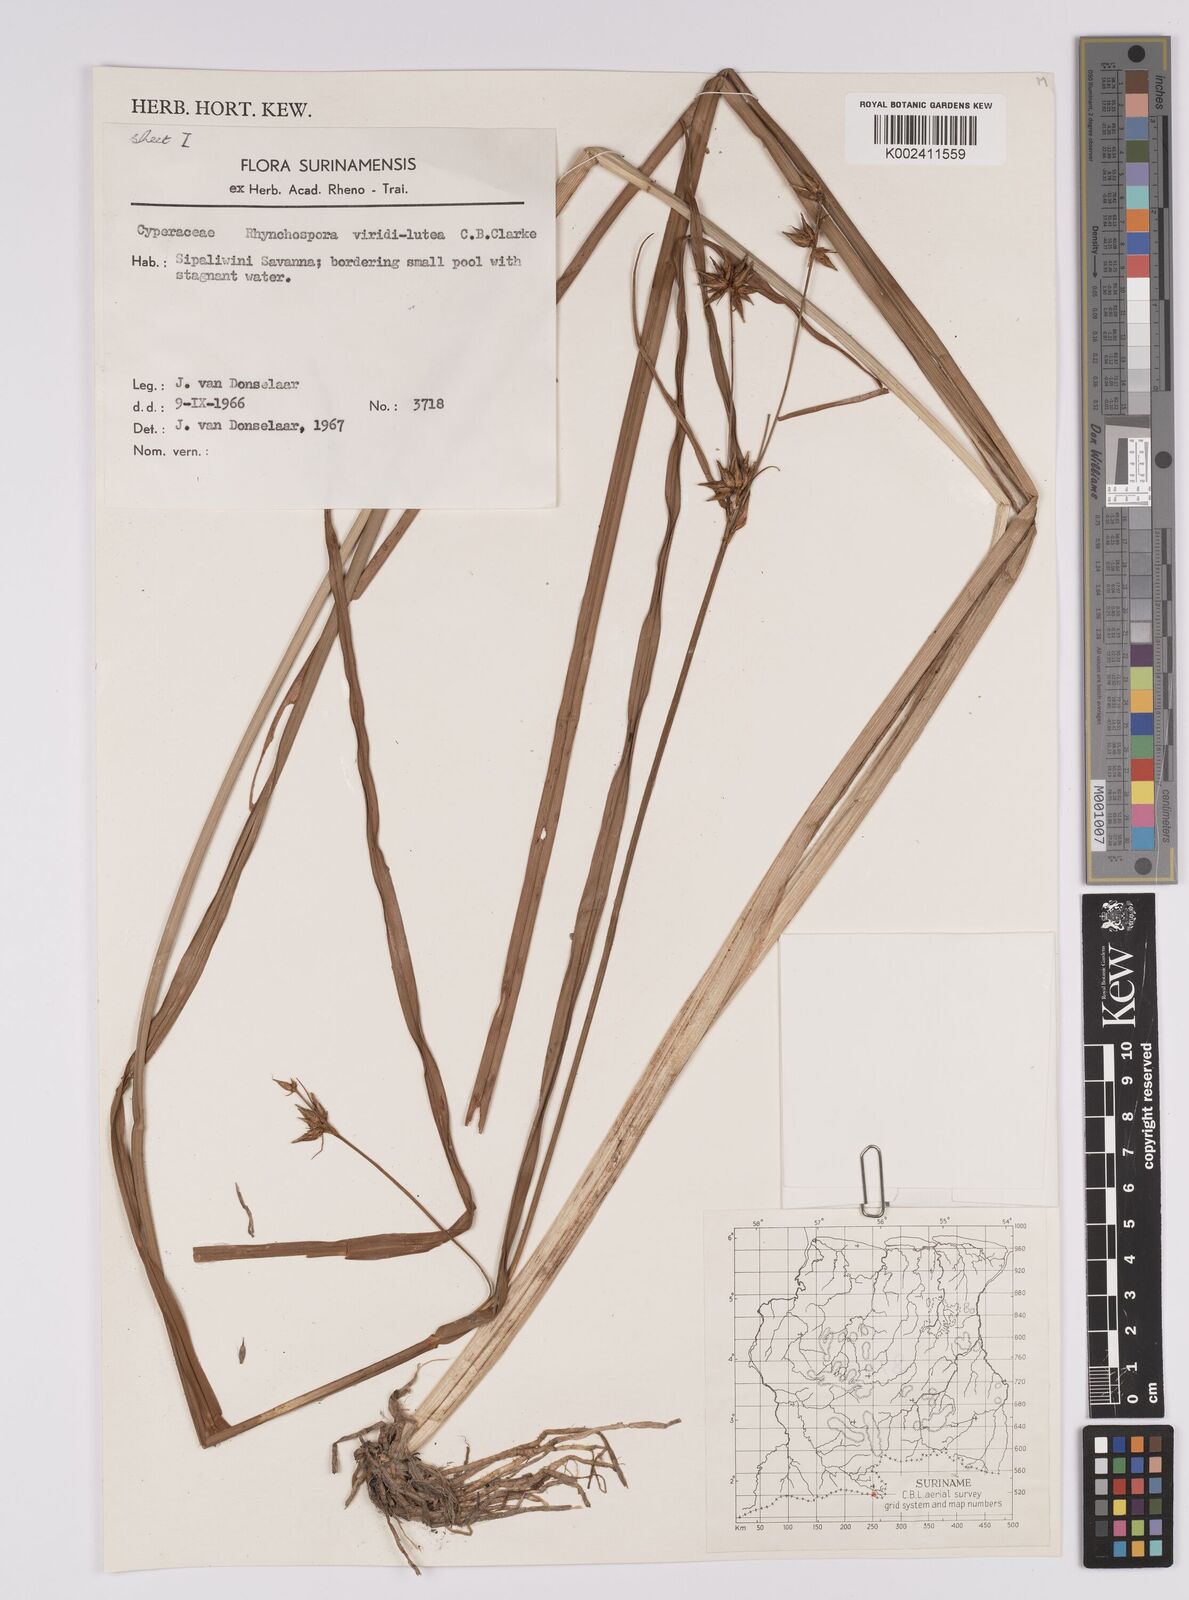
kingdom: Plantae
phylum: Tracheophyta
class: Liliopsida
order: Poales
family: Cyperaceae
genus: Rhynchospora
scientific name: Rhynchospora hassleri
